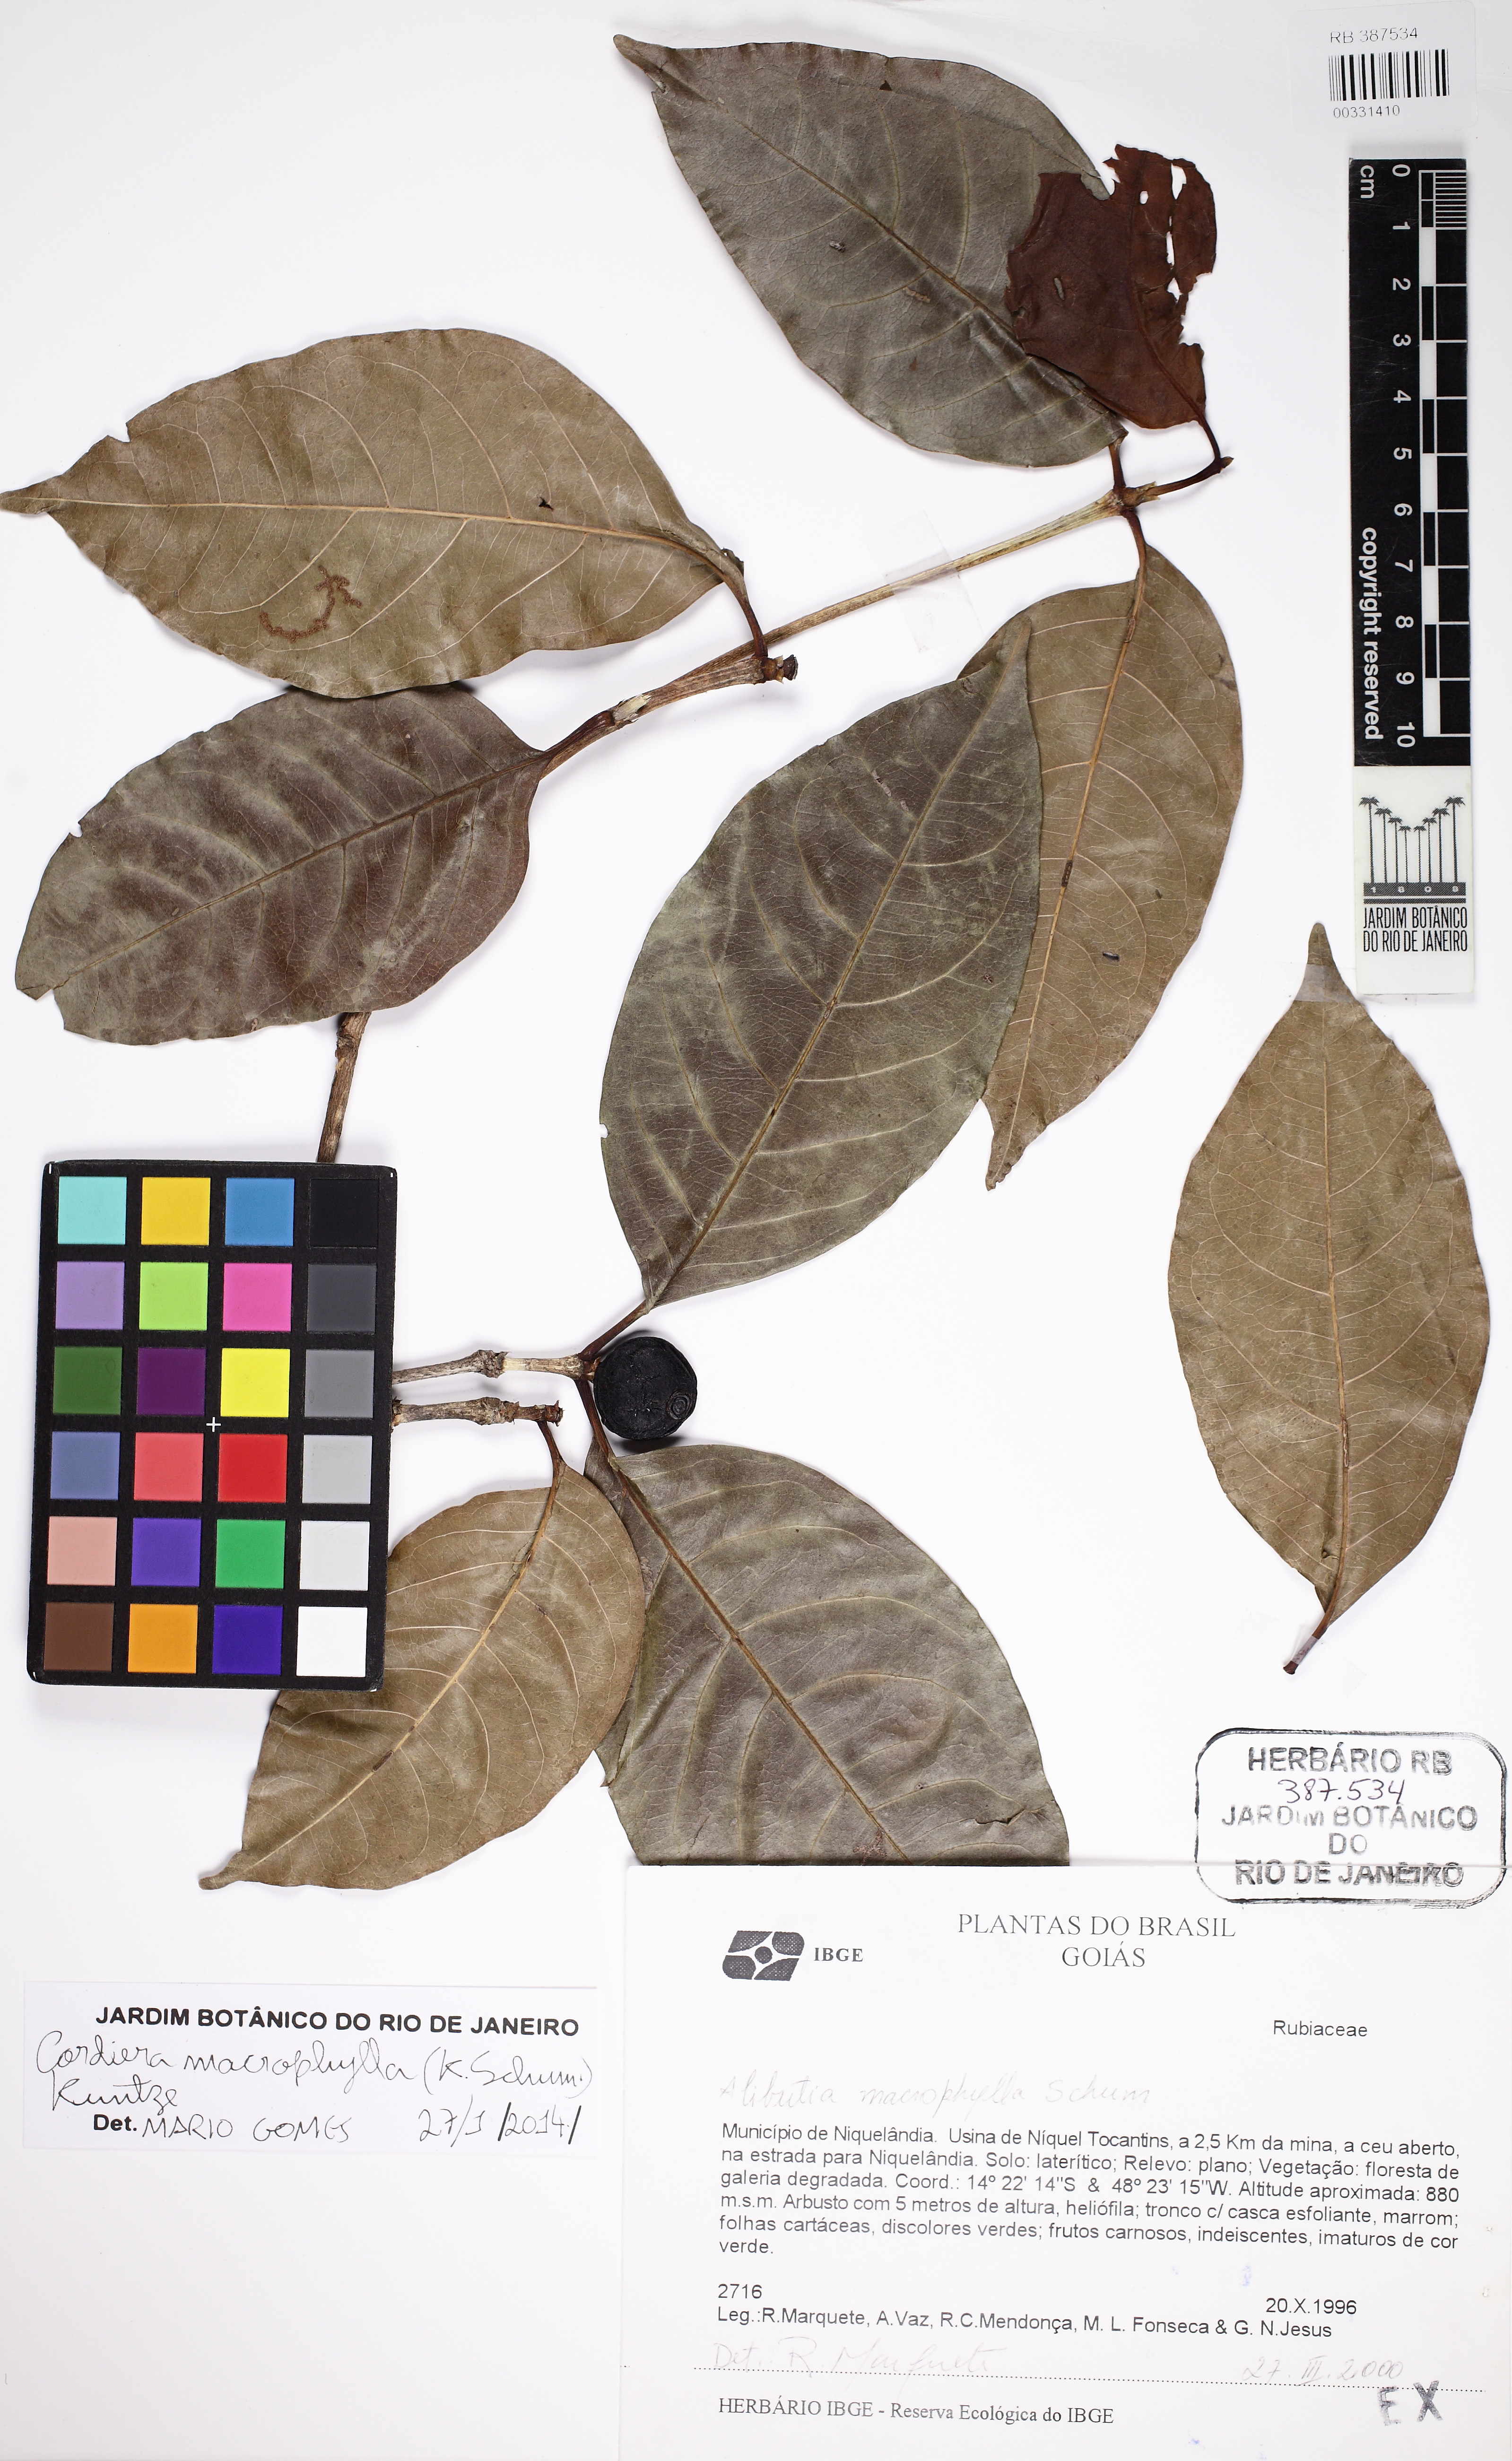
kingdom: Plantae
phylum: Tracheophyta
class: Magnoliopsida
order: Gentianales
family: Rubiaceae
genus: Cordiera
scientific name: Cordiera sessilis
